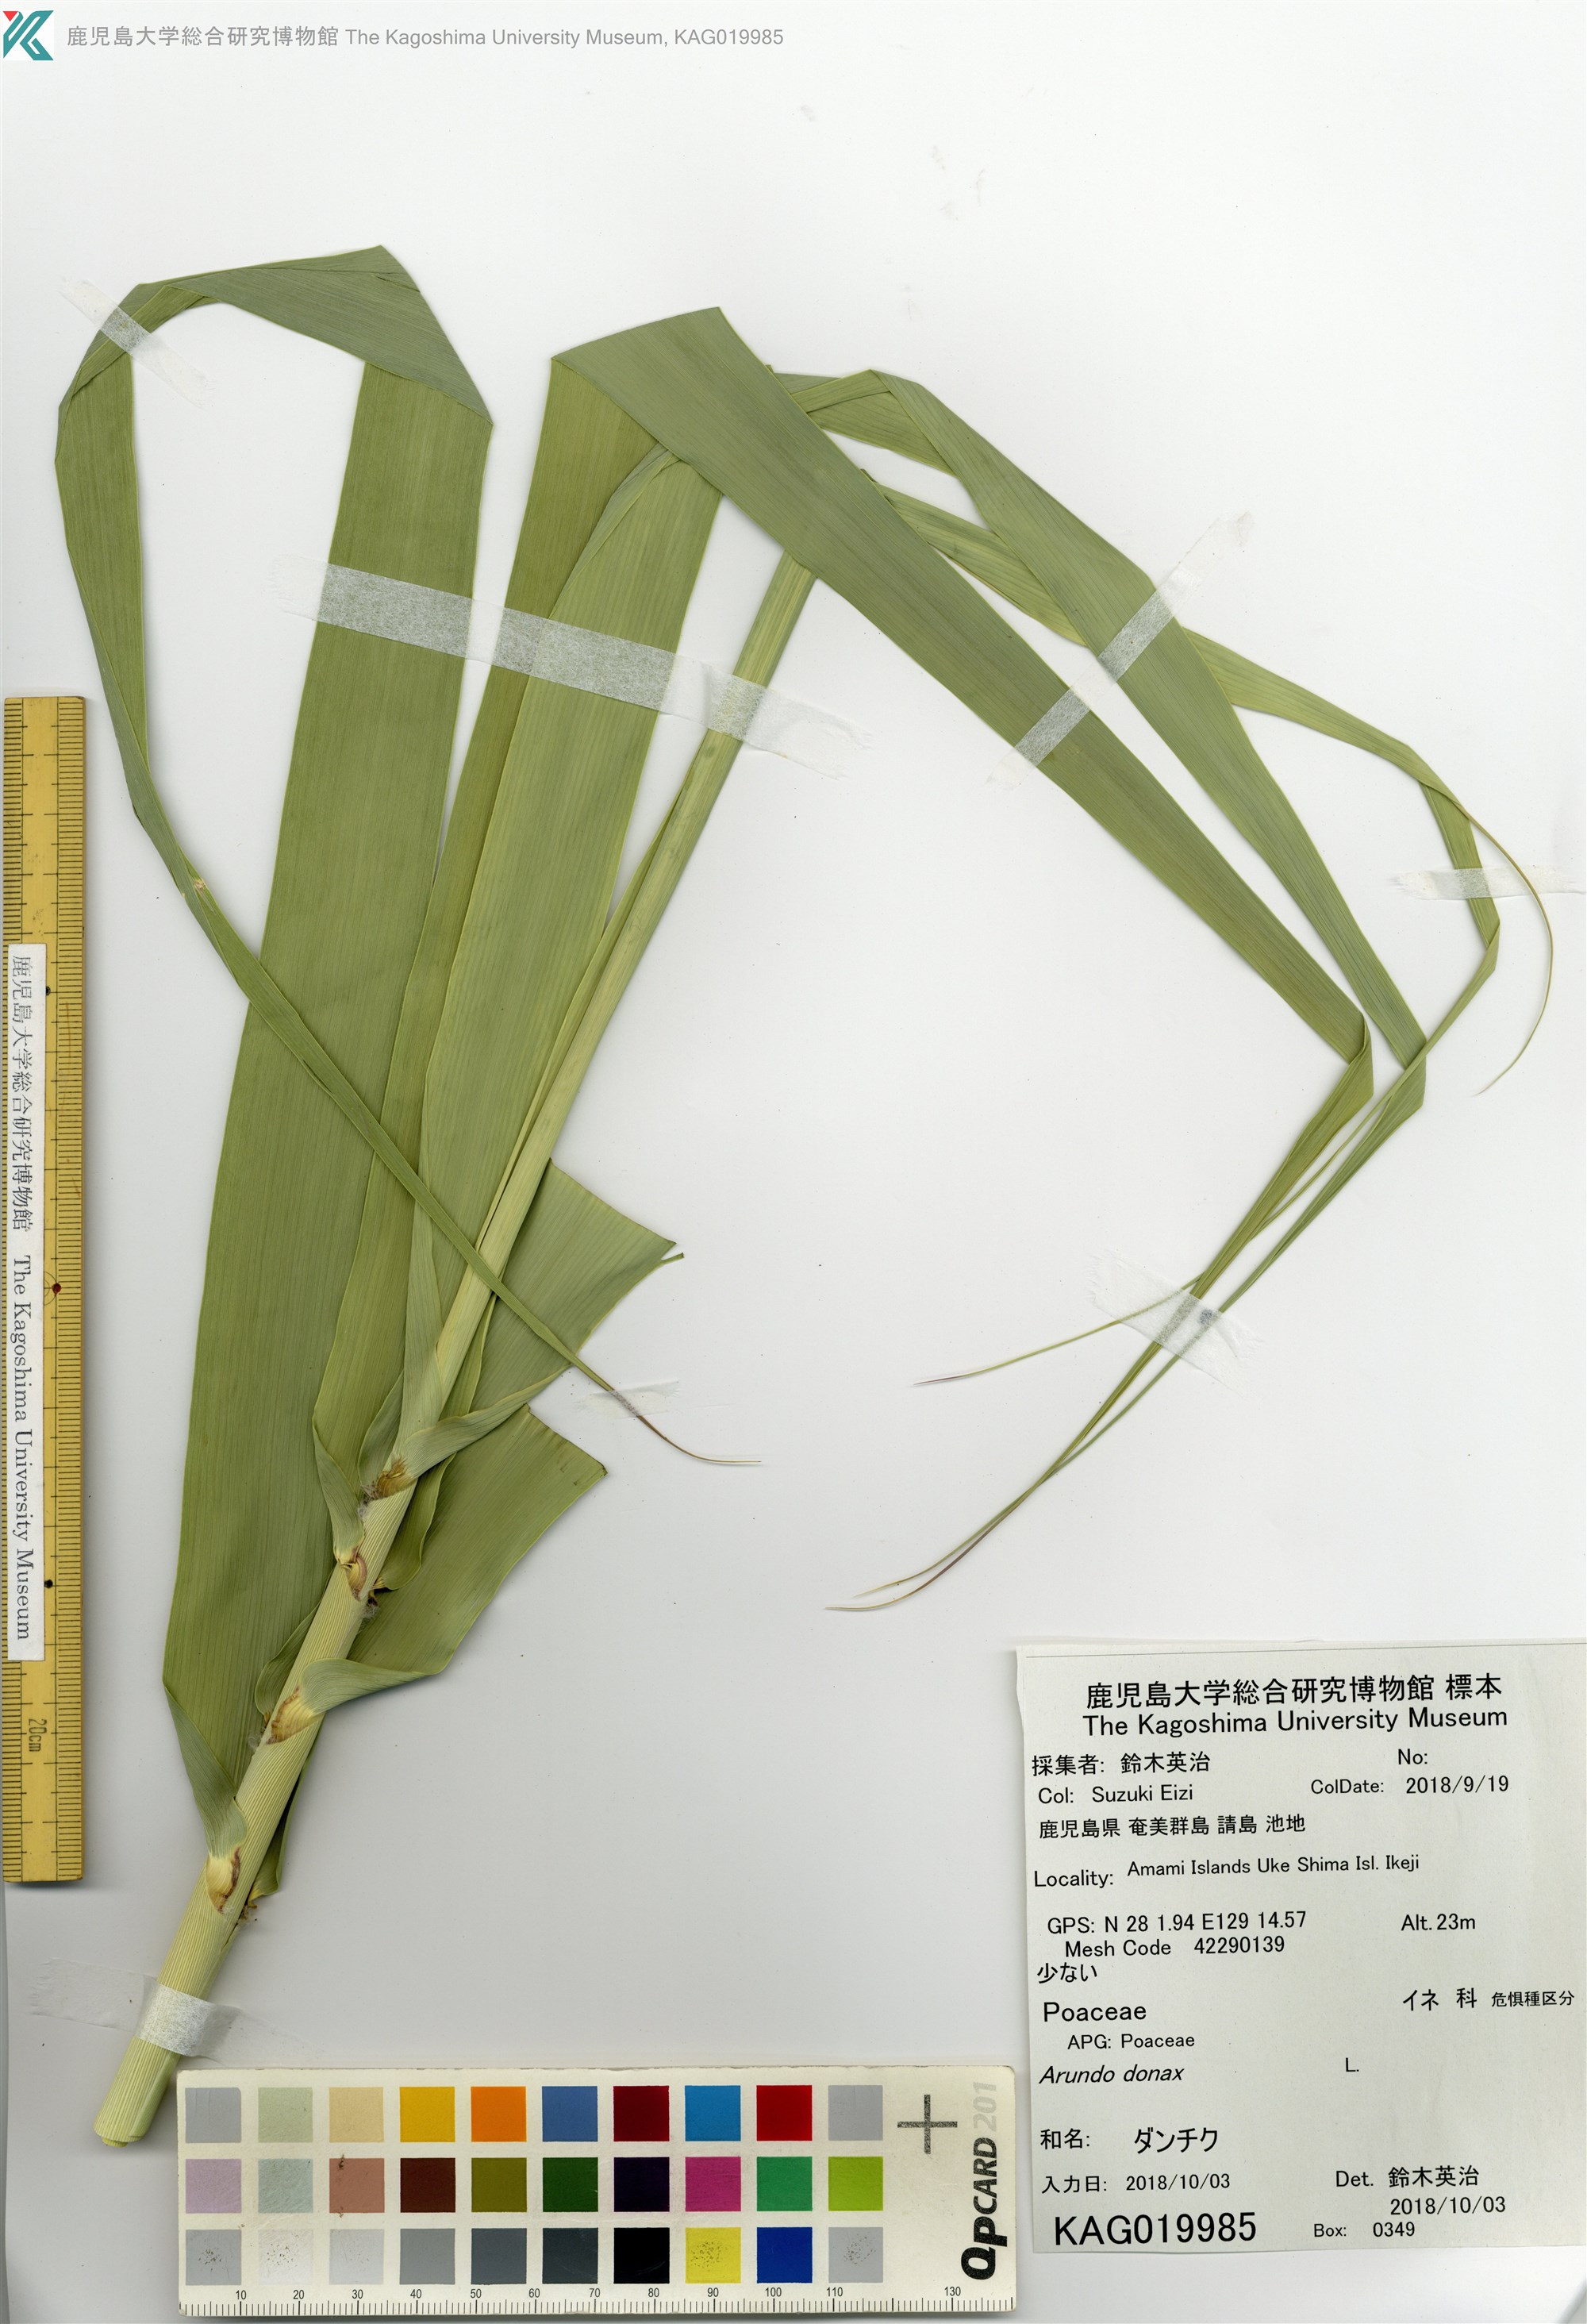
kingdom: Plantae
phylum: Tracheophyta
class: Liliopsida
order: Poales
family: Poaceae
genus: Arundo
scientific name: Arundo donax
